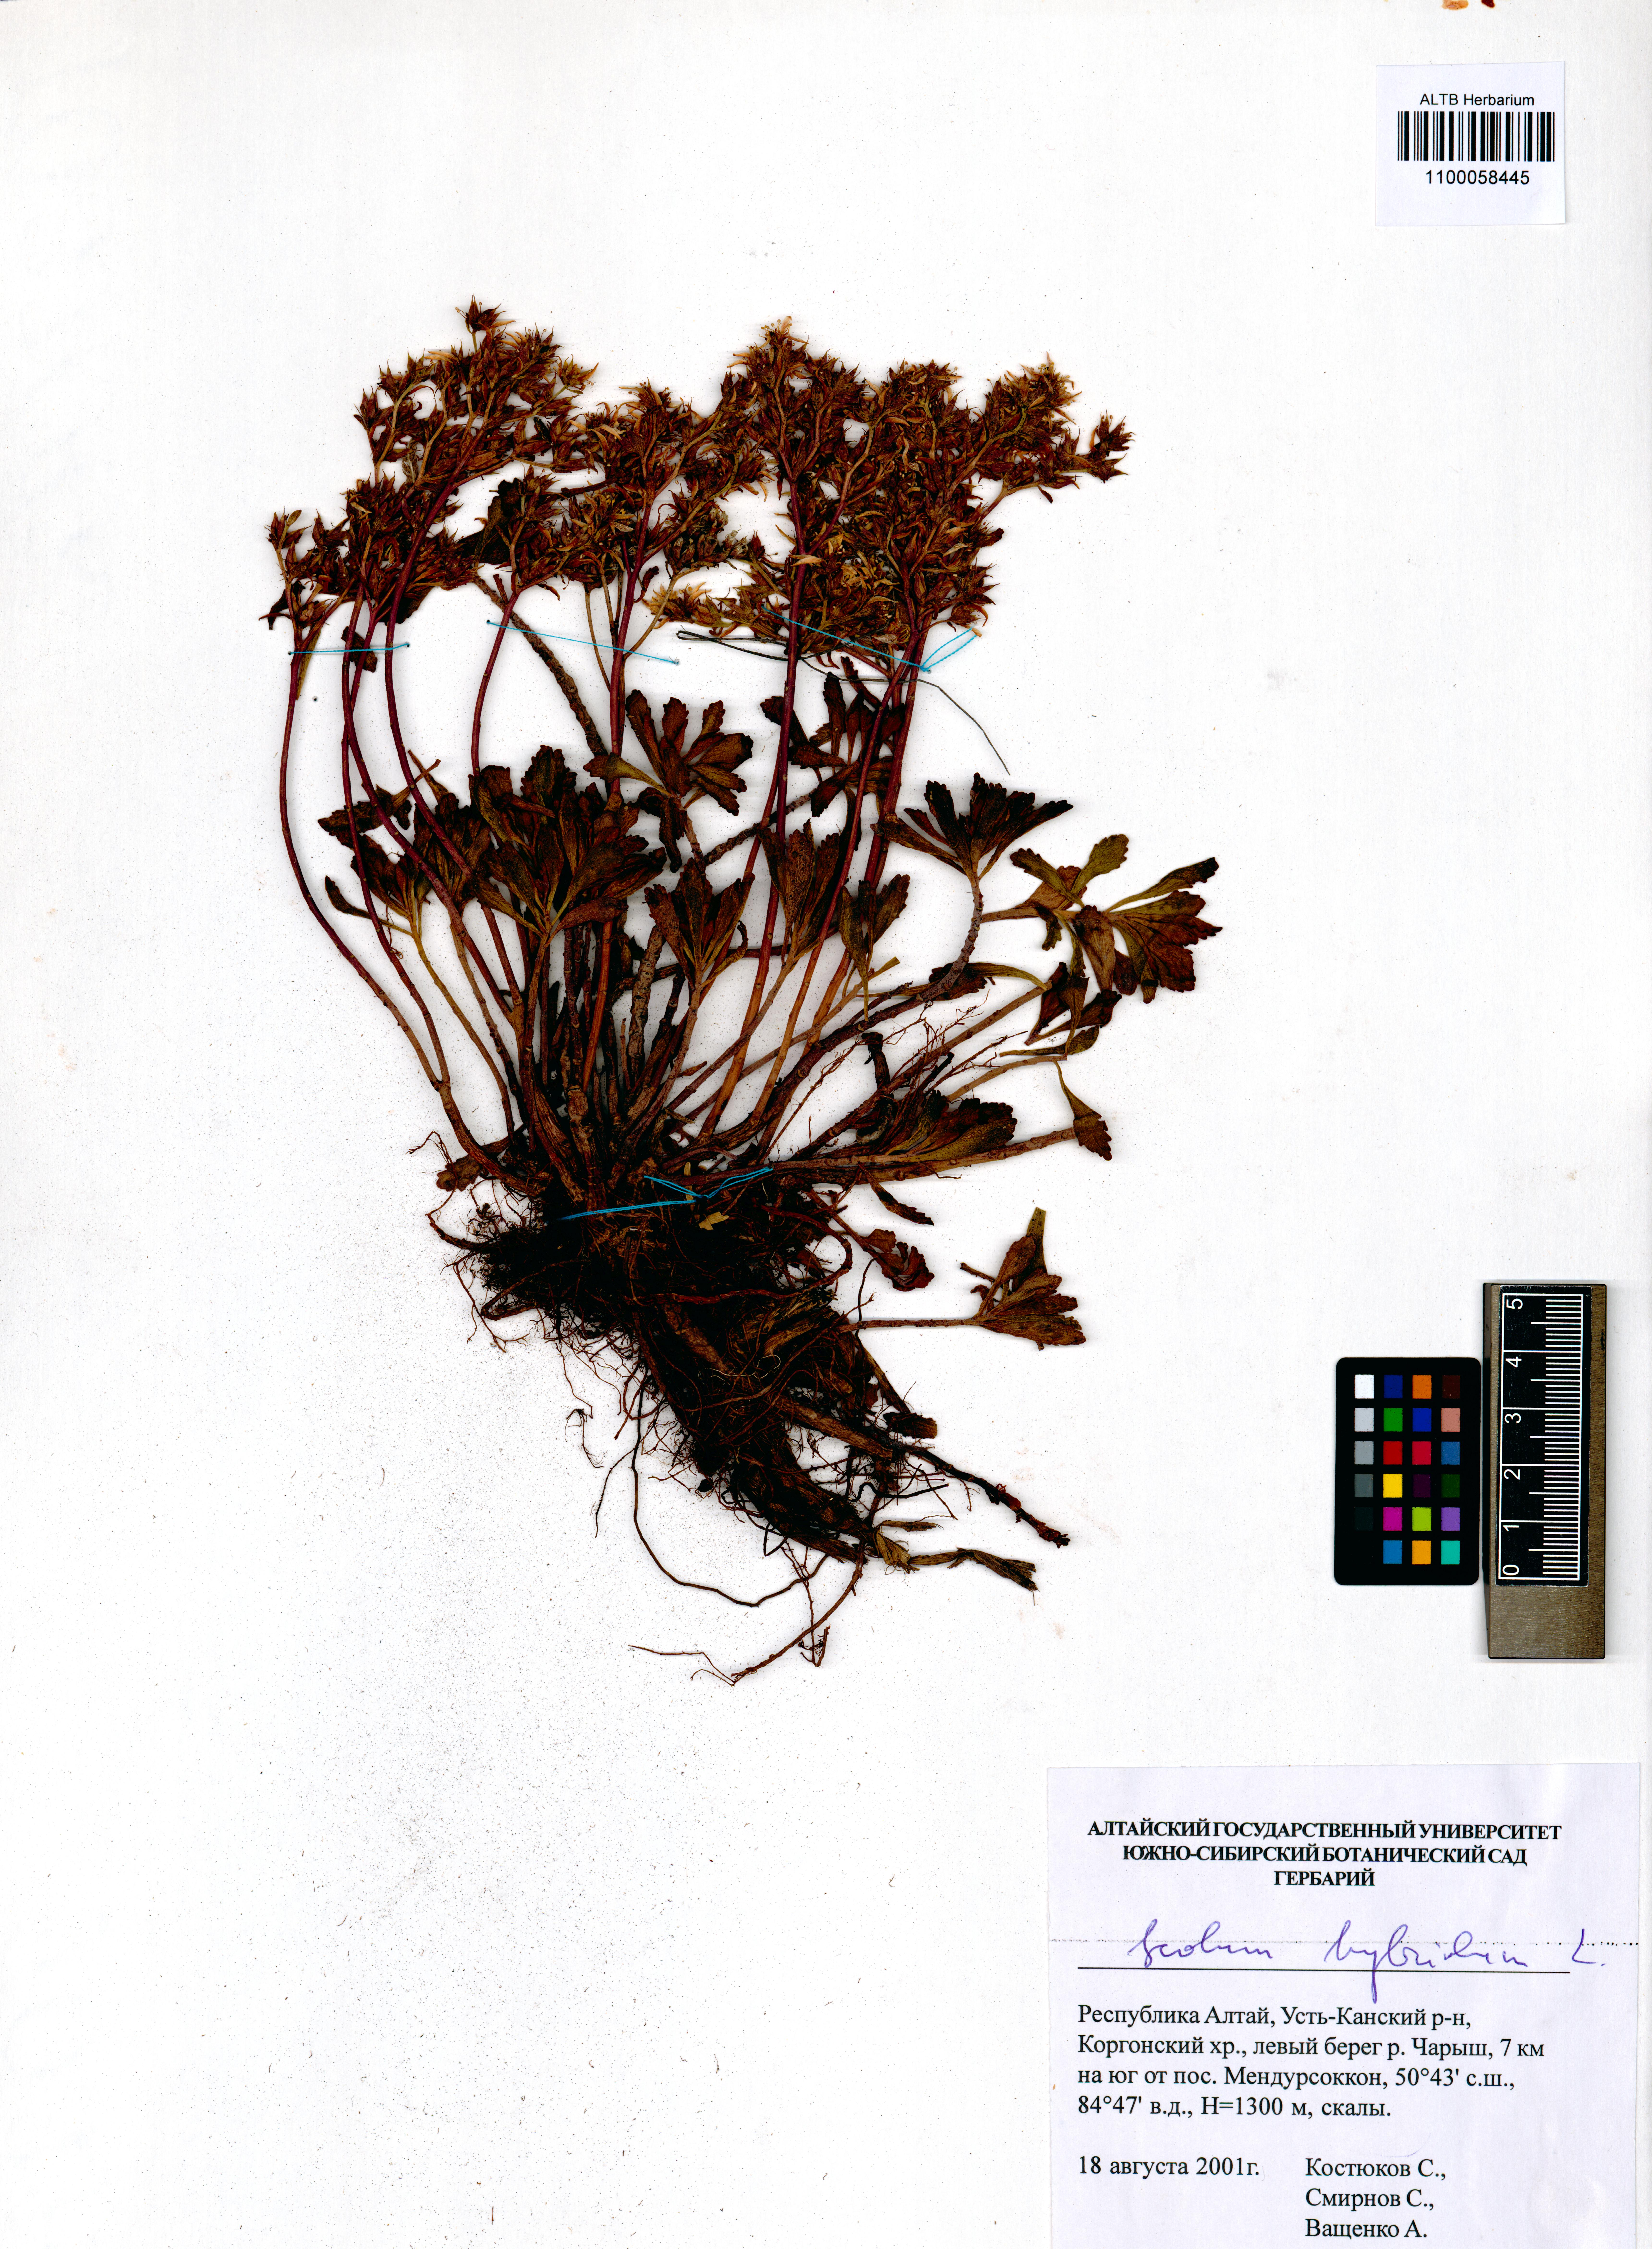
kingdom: Plantae
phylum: Tracheophyta
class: Magnoliopsida
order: Saxifragales
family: Crassulaceae
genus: Phedimus
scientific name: Phedimus hybridus
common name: Hybrid stonecrop
